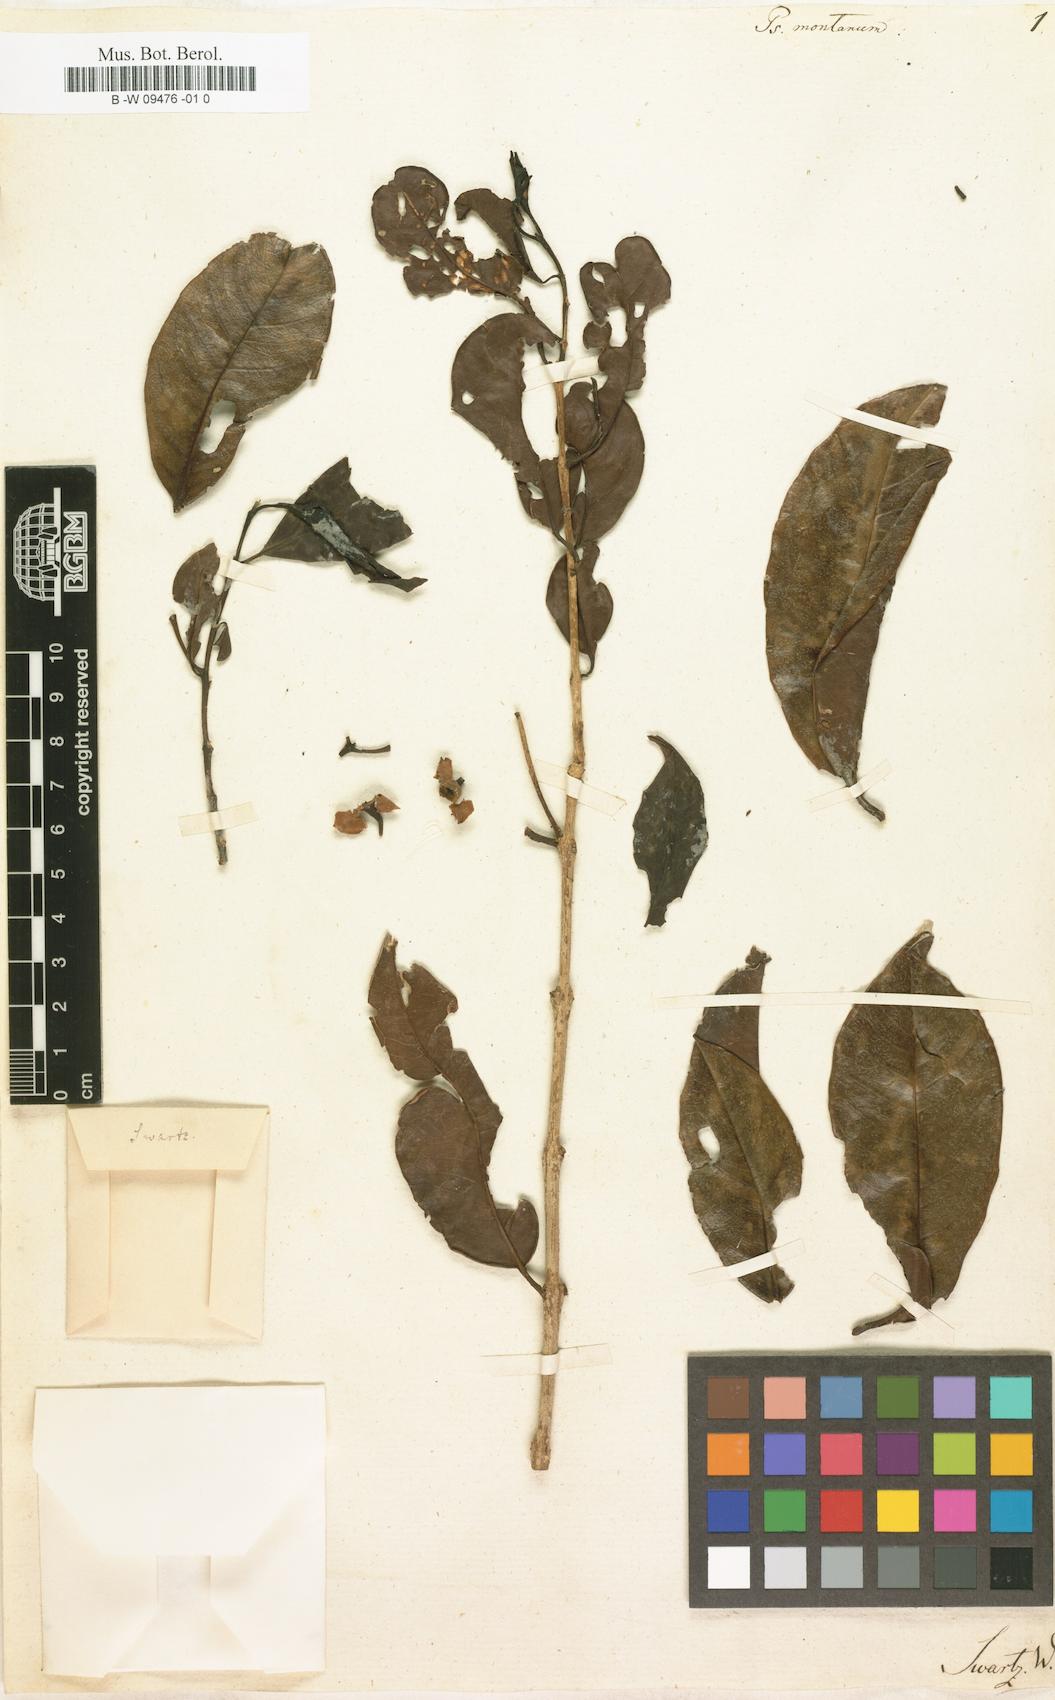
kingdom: Plantae
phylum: Tracheophyta
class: Magnoliopsida
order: Myrtales
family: Myrtaceae
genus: Psidium
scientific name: Psidium montanum
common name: Mountain guava
